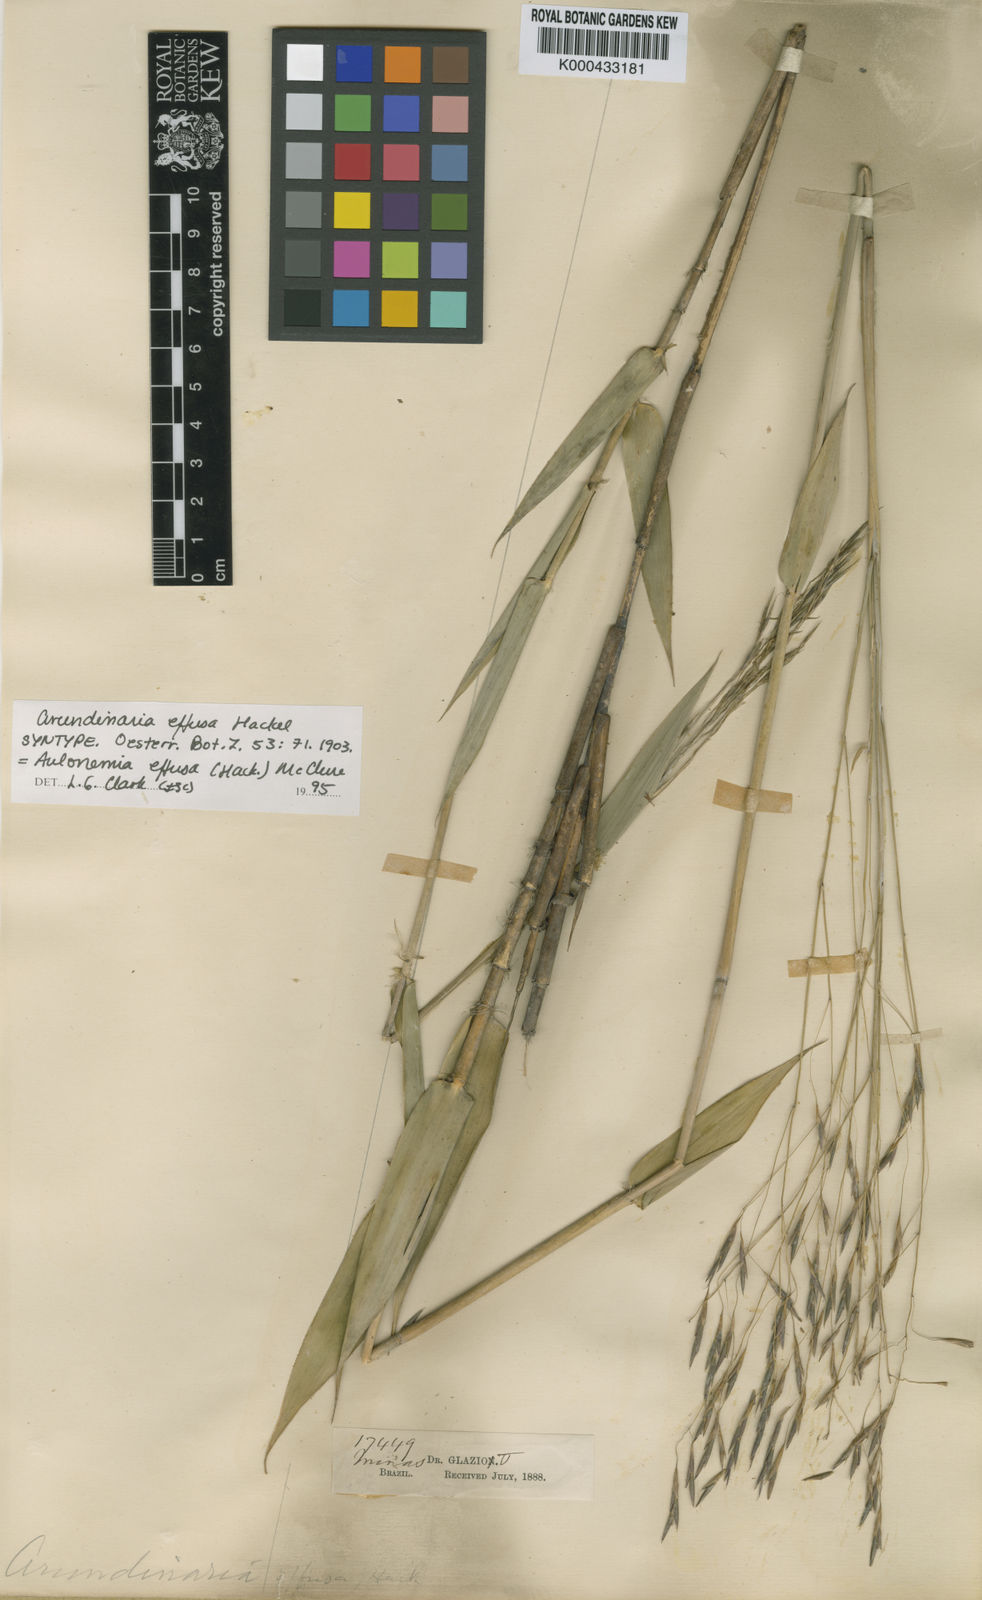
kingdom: Plantae
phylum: Tracheophyta
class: Liliopsida
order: Poales
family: Poaceae
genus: Aulonemia
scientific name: Aulonemia effusa
